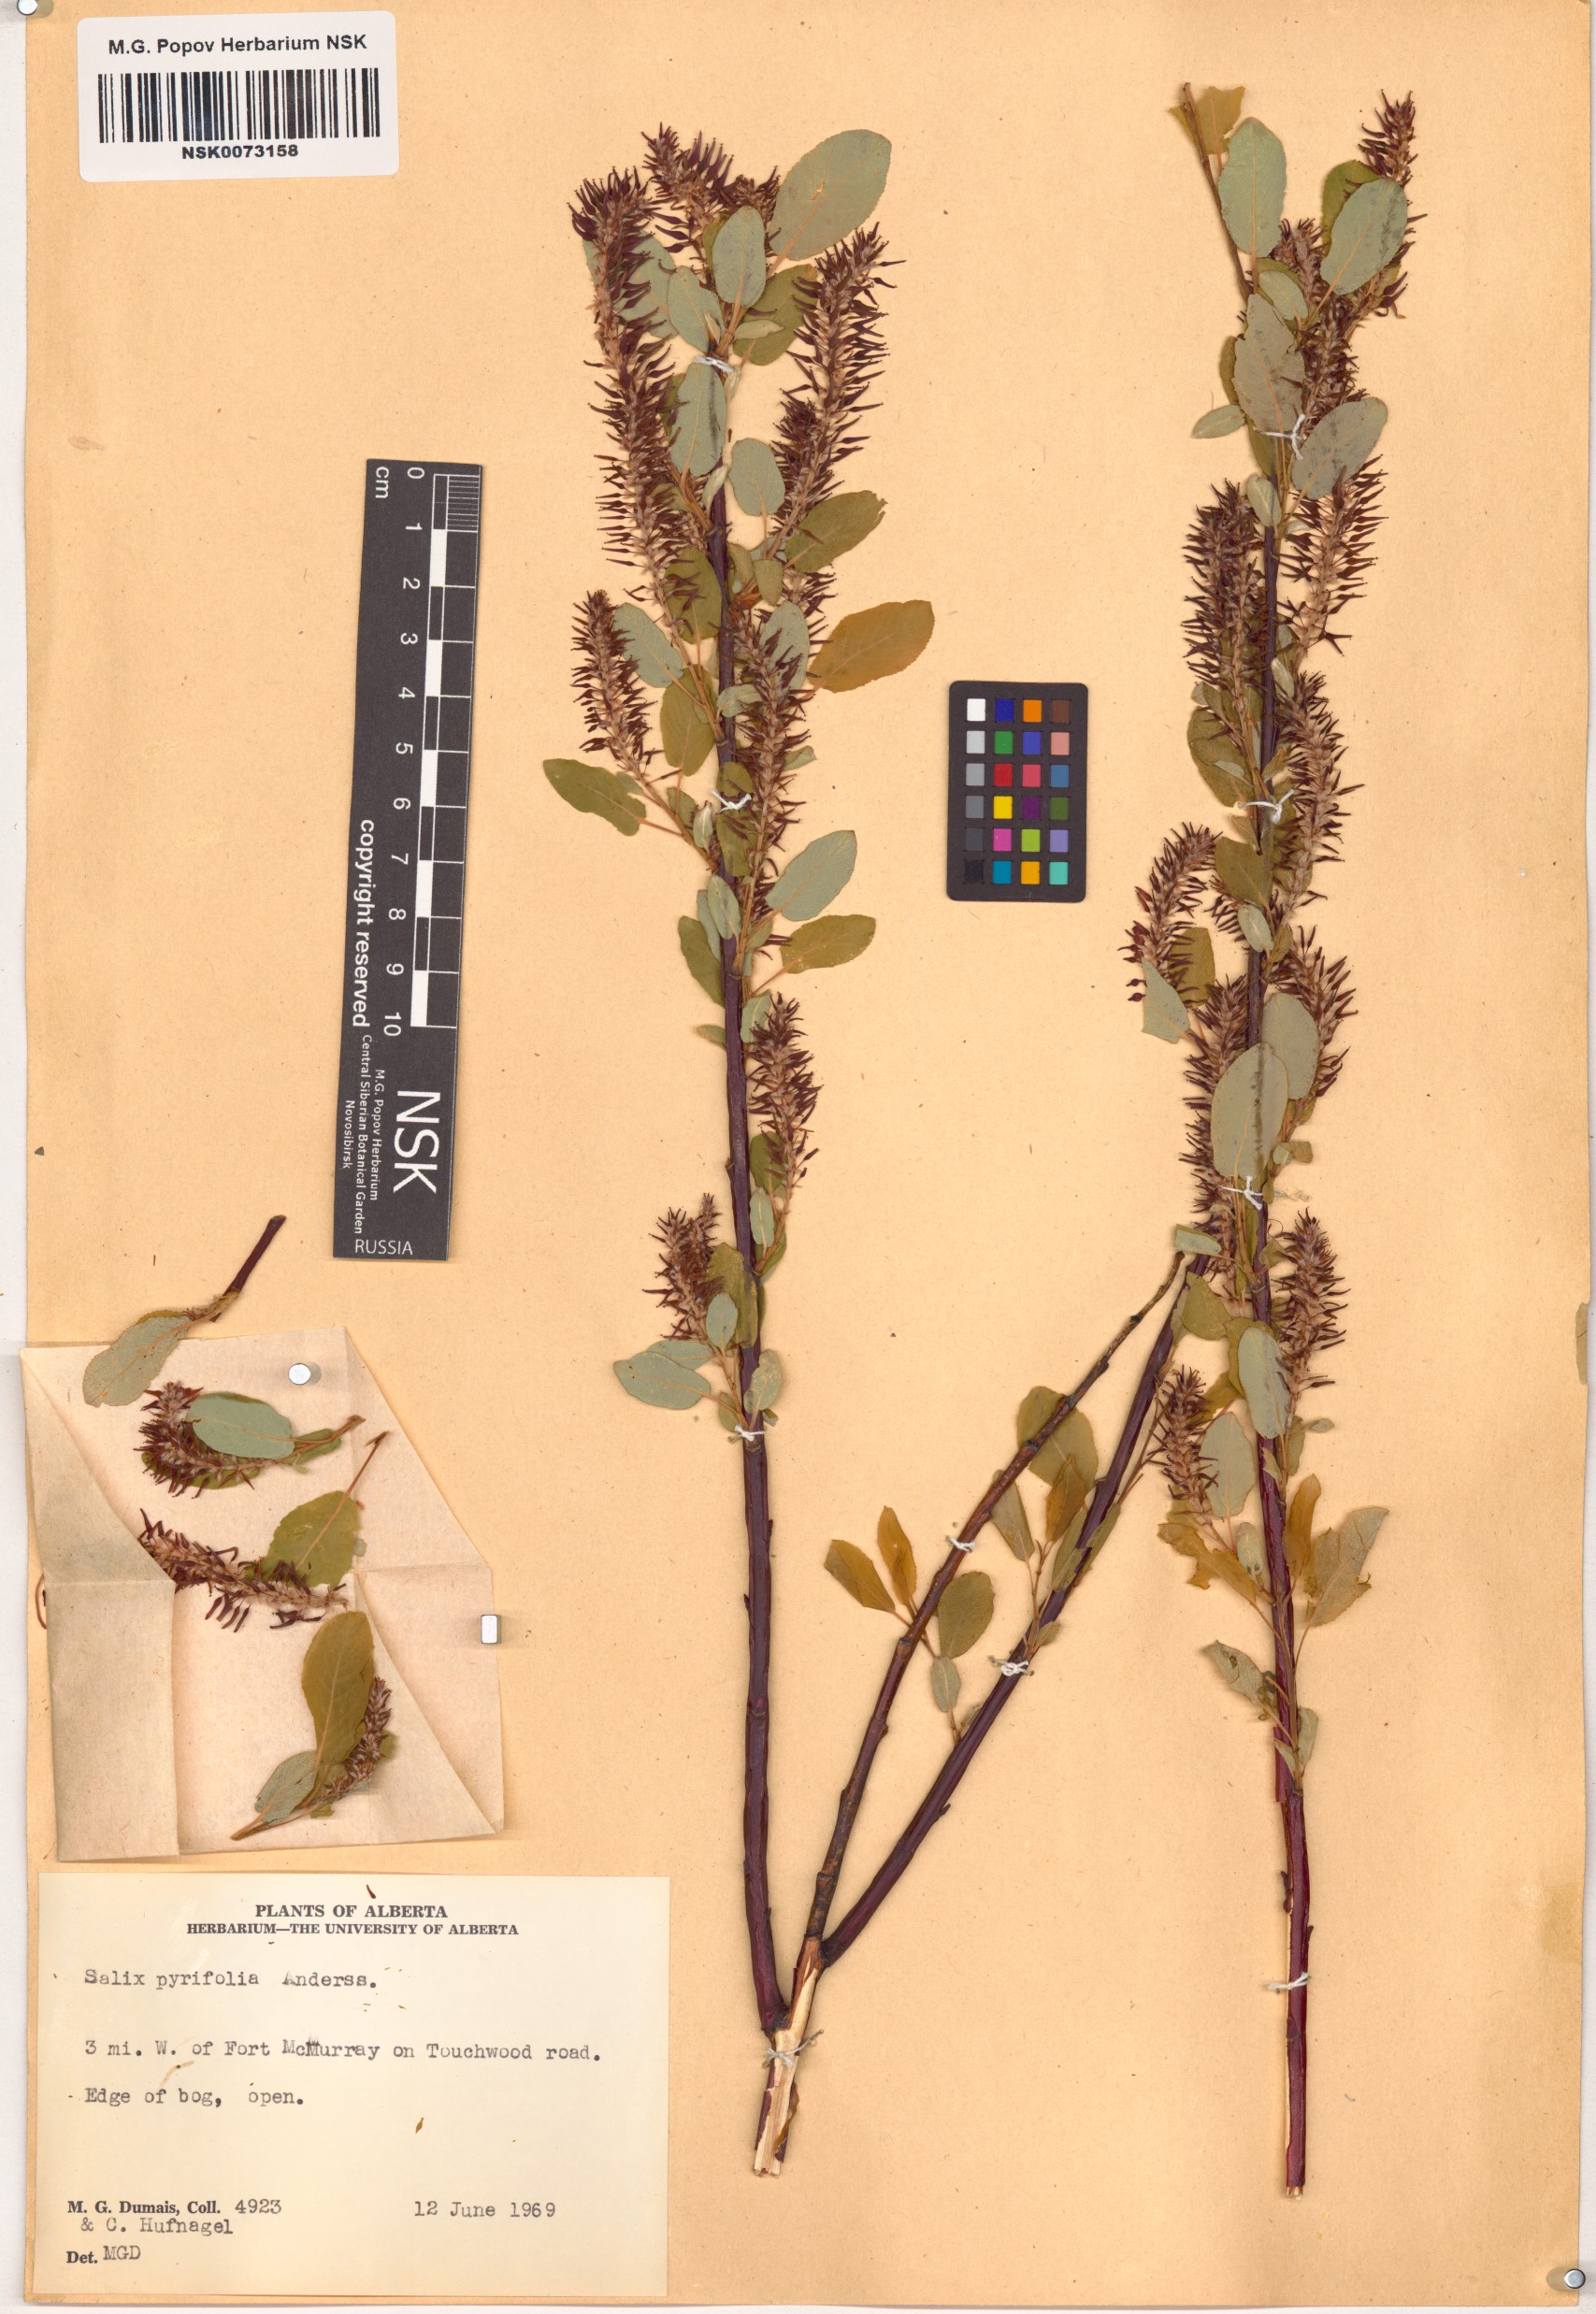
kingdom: Plantae
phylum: Tracheophyta
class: Magnoliopsida
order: Malpighiales
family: Salicaceae
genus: Salix
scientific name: Salix pyrifolia
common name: Balsam willow
